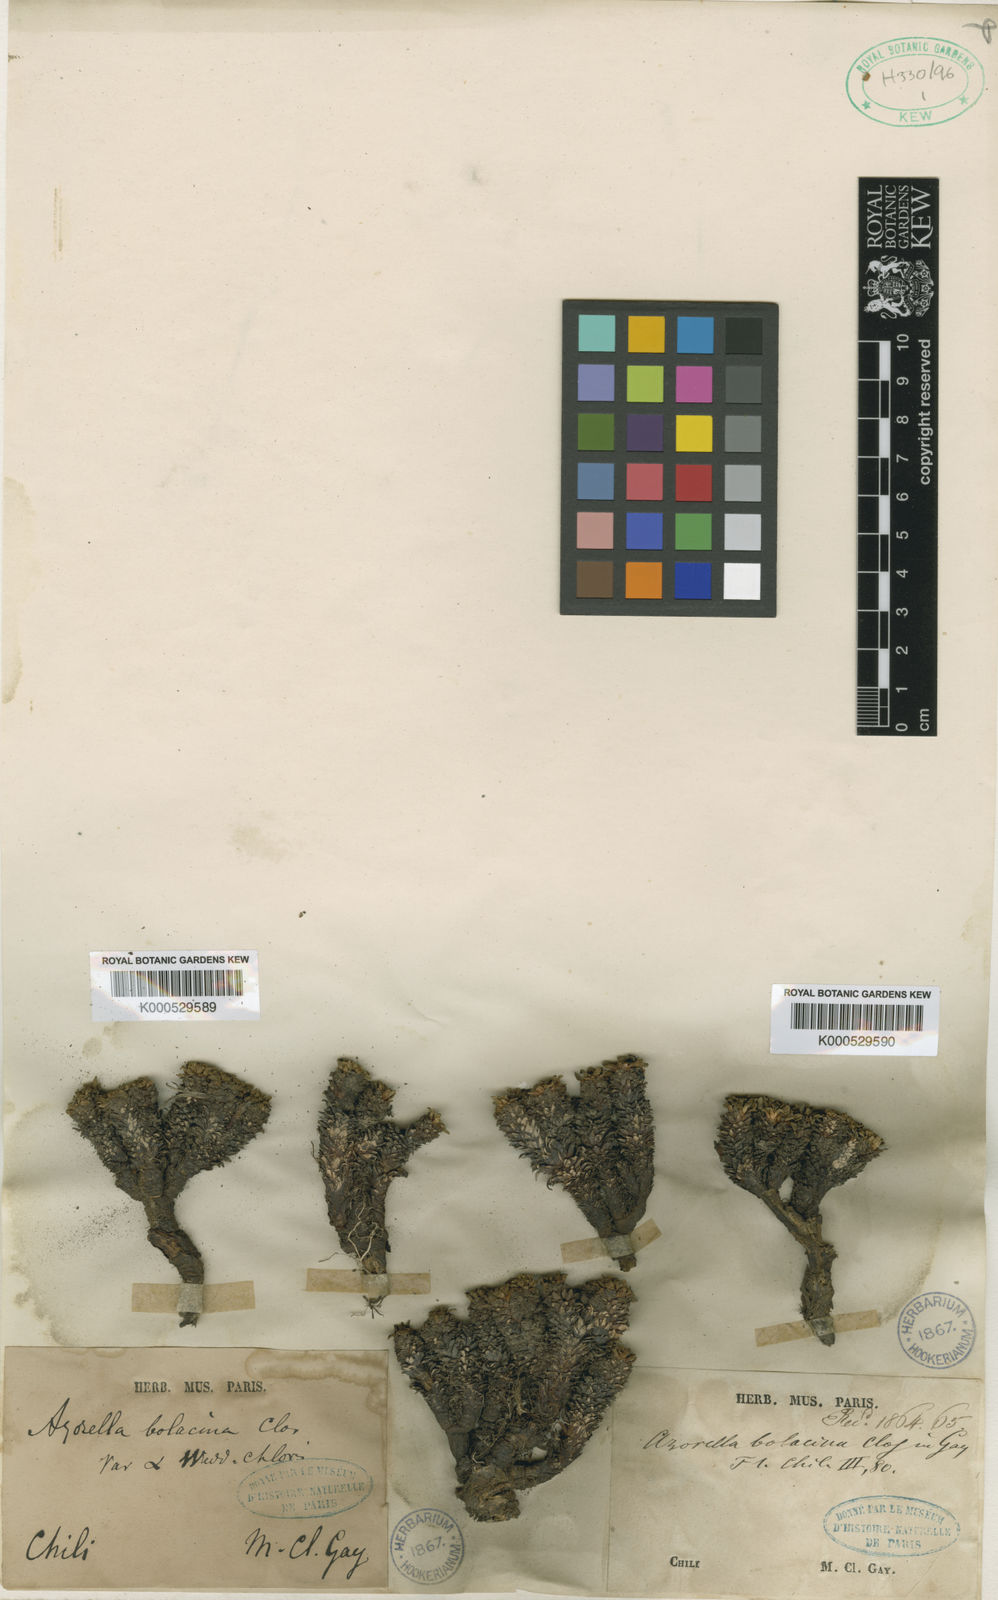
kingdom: Plantae
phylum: Tracheophyta
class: Magnoliopsida
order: Apiales
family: Apiaceae
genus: Azorella
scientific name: Azorella madreporica
